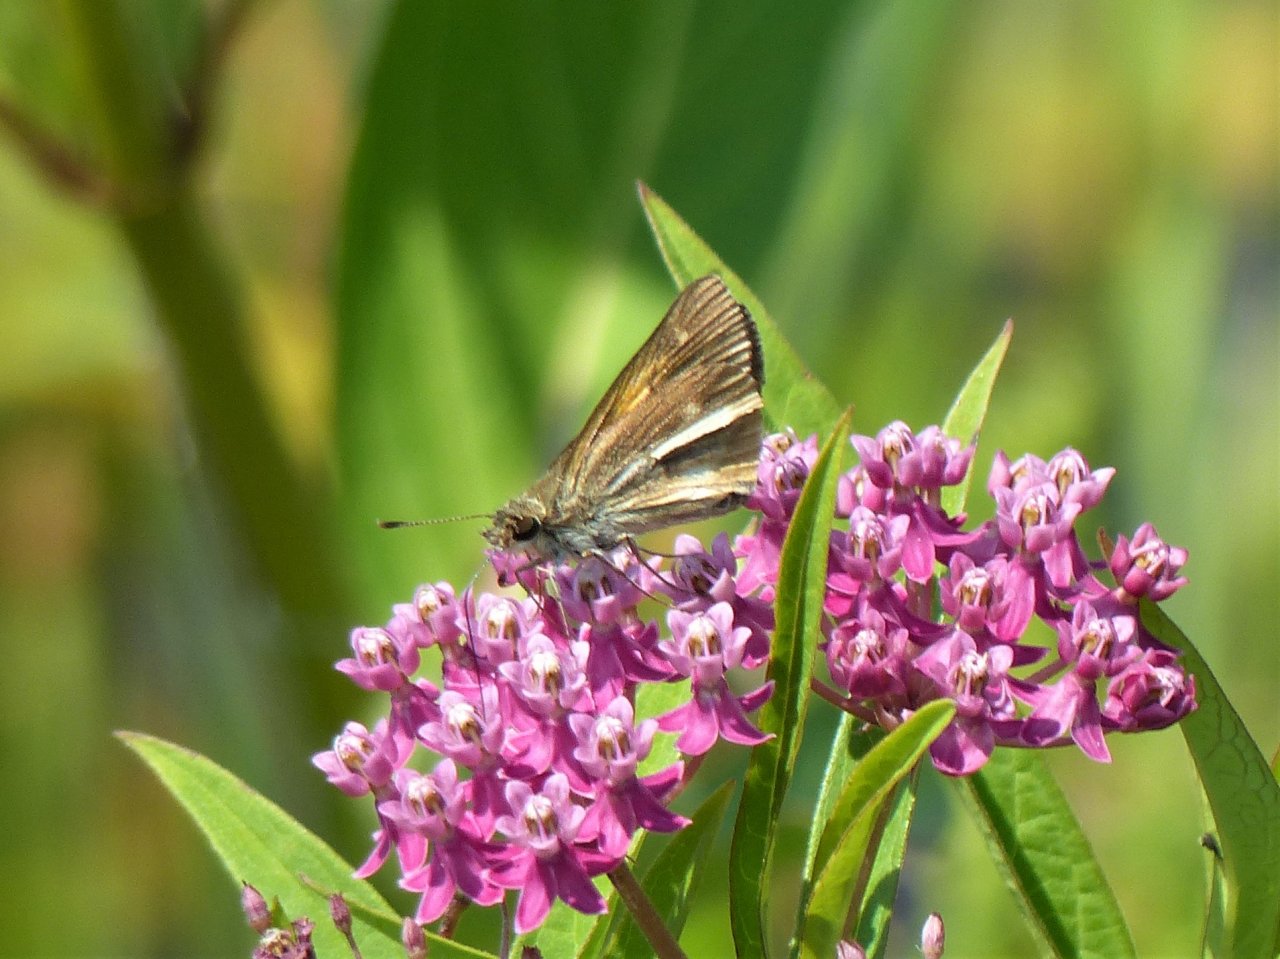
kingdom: Animalia
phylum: Arthropoda
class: Insecta
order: Lepidoptera
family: Hesperiidae
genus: Poanes
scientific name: Poanes viator
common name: Broad-winged Skipper
